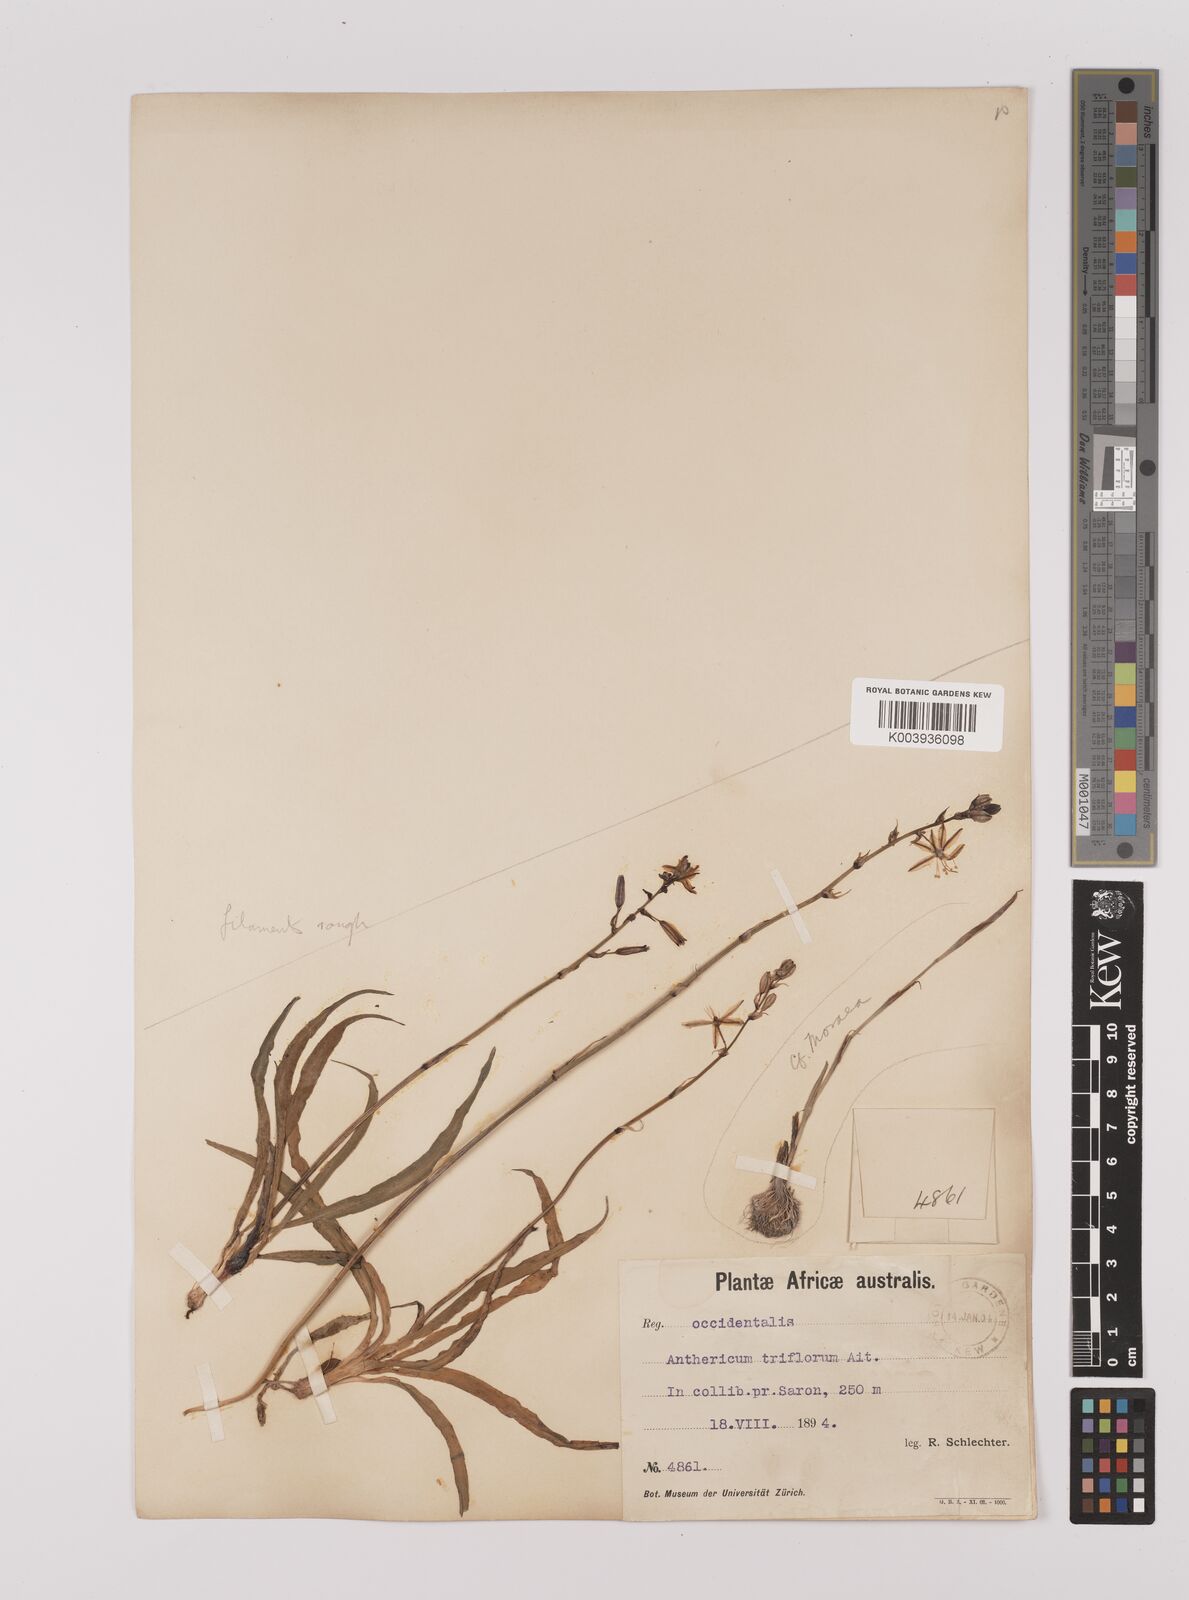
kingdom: Plantae
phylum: Tracheophyta
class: Liliopsida
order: Asparagales
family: Asparagaceae
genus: Chlorophytum
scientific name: Chlorophytum triflorum
